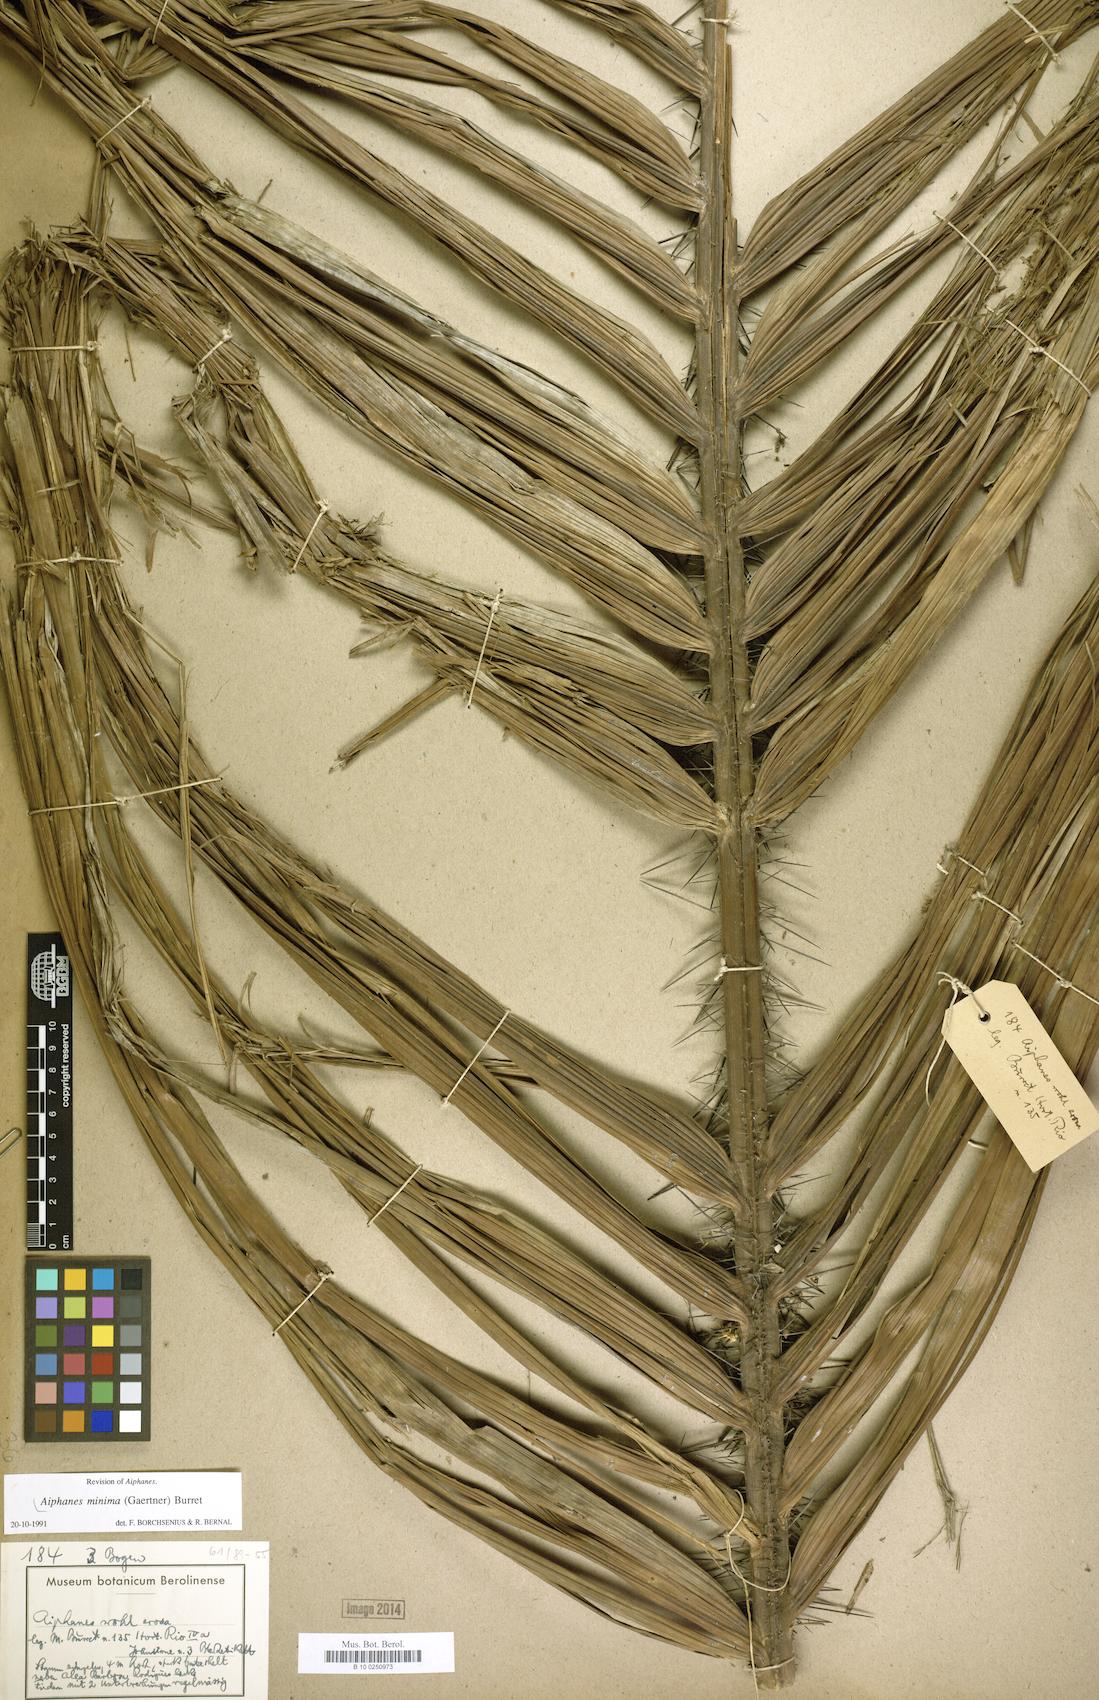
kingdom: Plantae
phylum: Tracheophyta
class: Liliopsida
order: Arecales
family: Arecaceae
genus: Aiphanes
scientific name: Aiphanes minima
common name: Grigri
